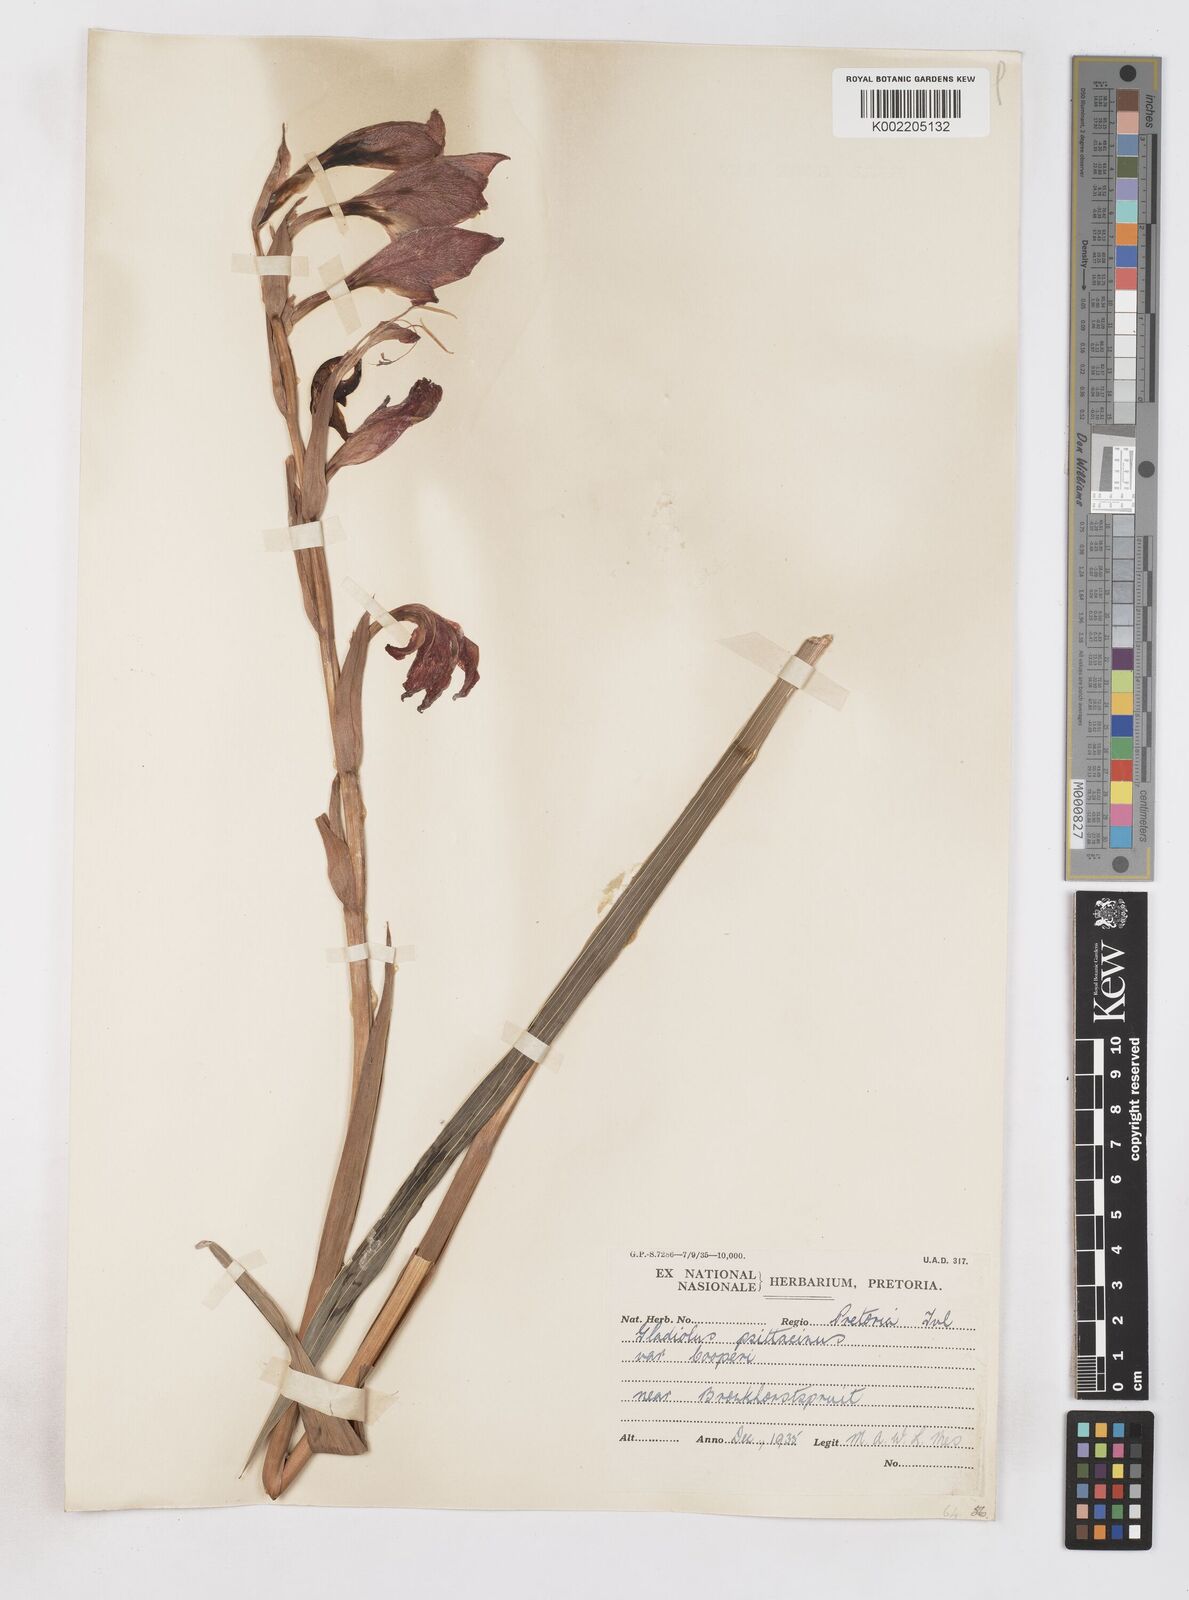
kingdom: Plantae
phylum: Tracheophyta
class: Liliopsida
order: Asparagales
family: Iridaceae
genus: Gladiolus
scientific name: Gladiolus dalenii
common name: Cornflag
